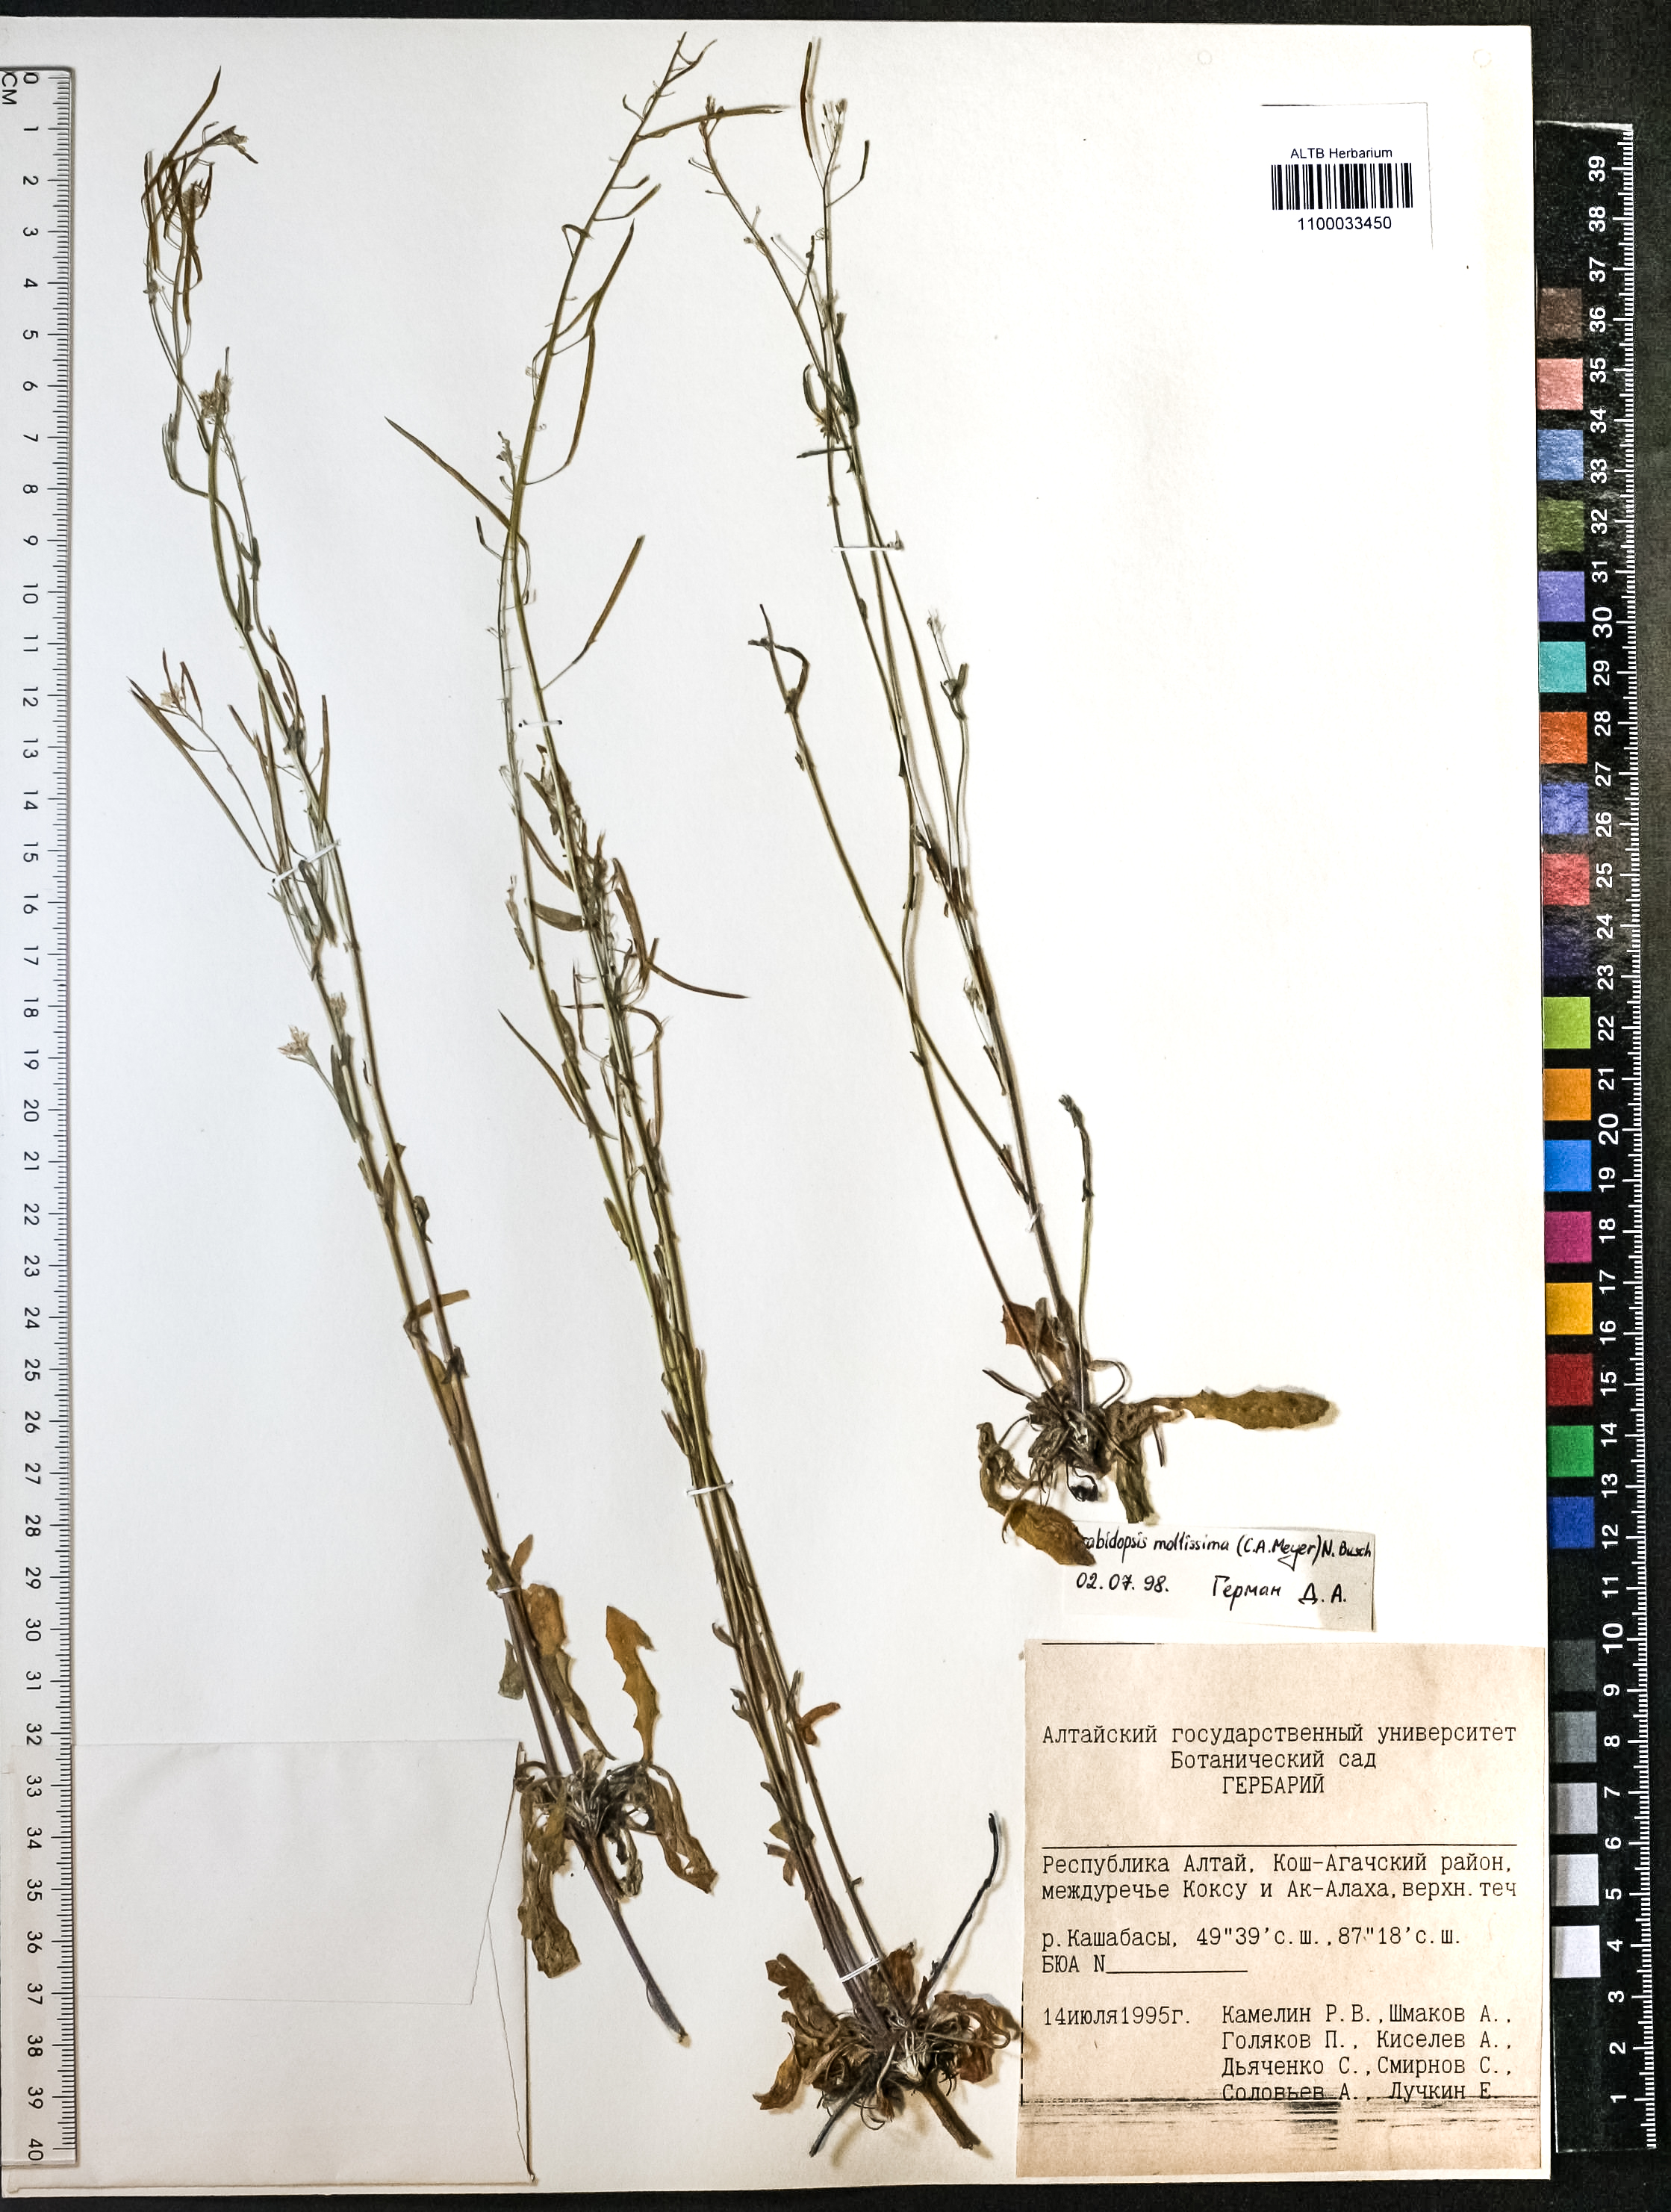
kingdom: Plantae
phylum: Tracheophyta
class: Magnoliopsida
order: Brassicales
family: Brassicaceae
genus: Crucihimalaya
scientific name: Crucihimalaya mollissima
